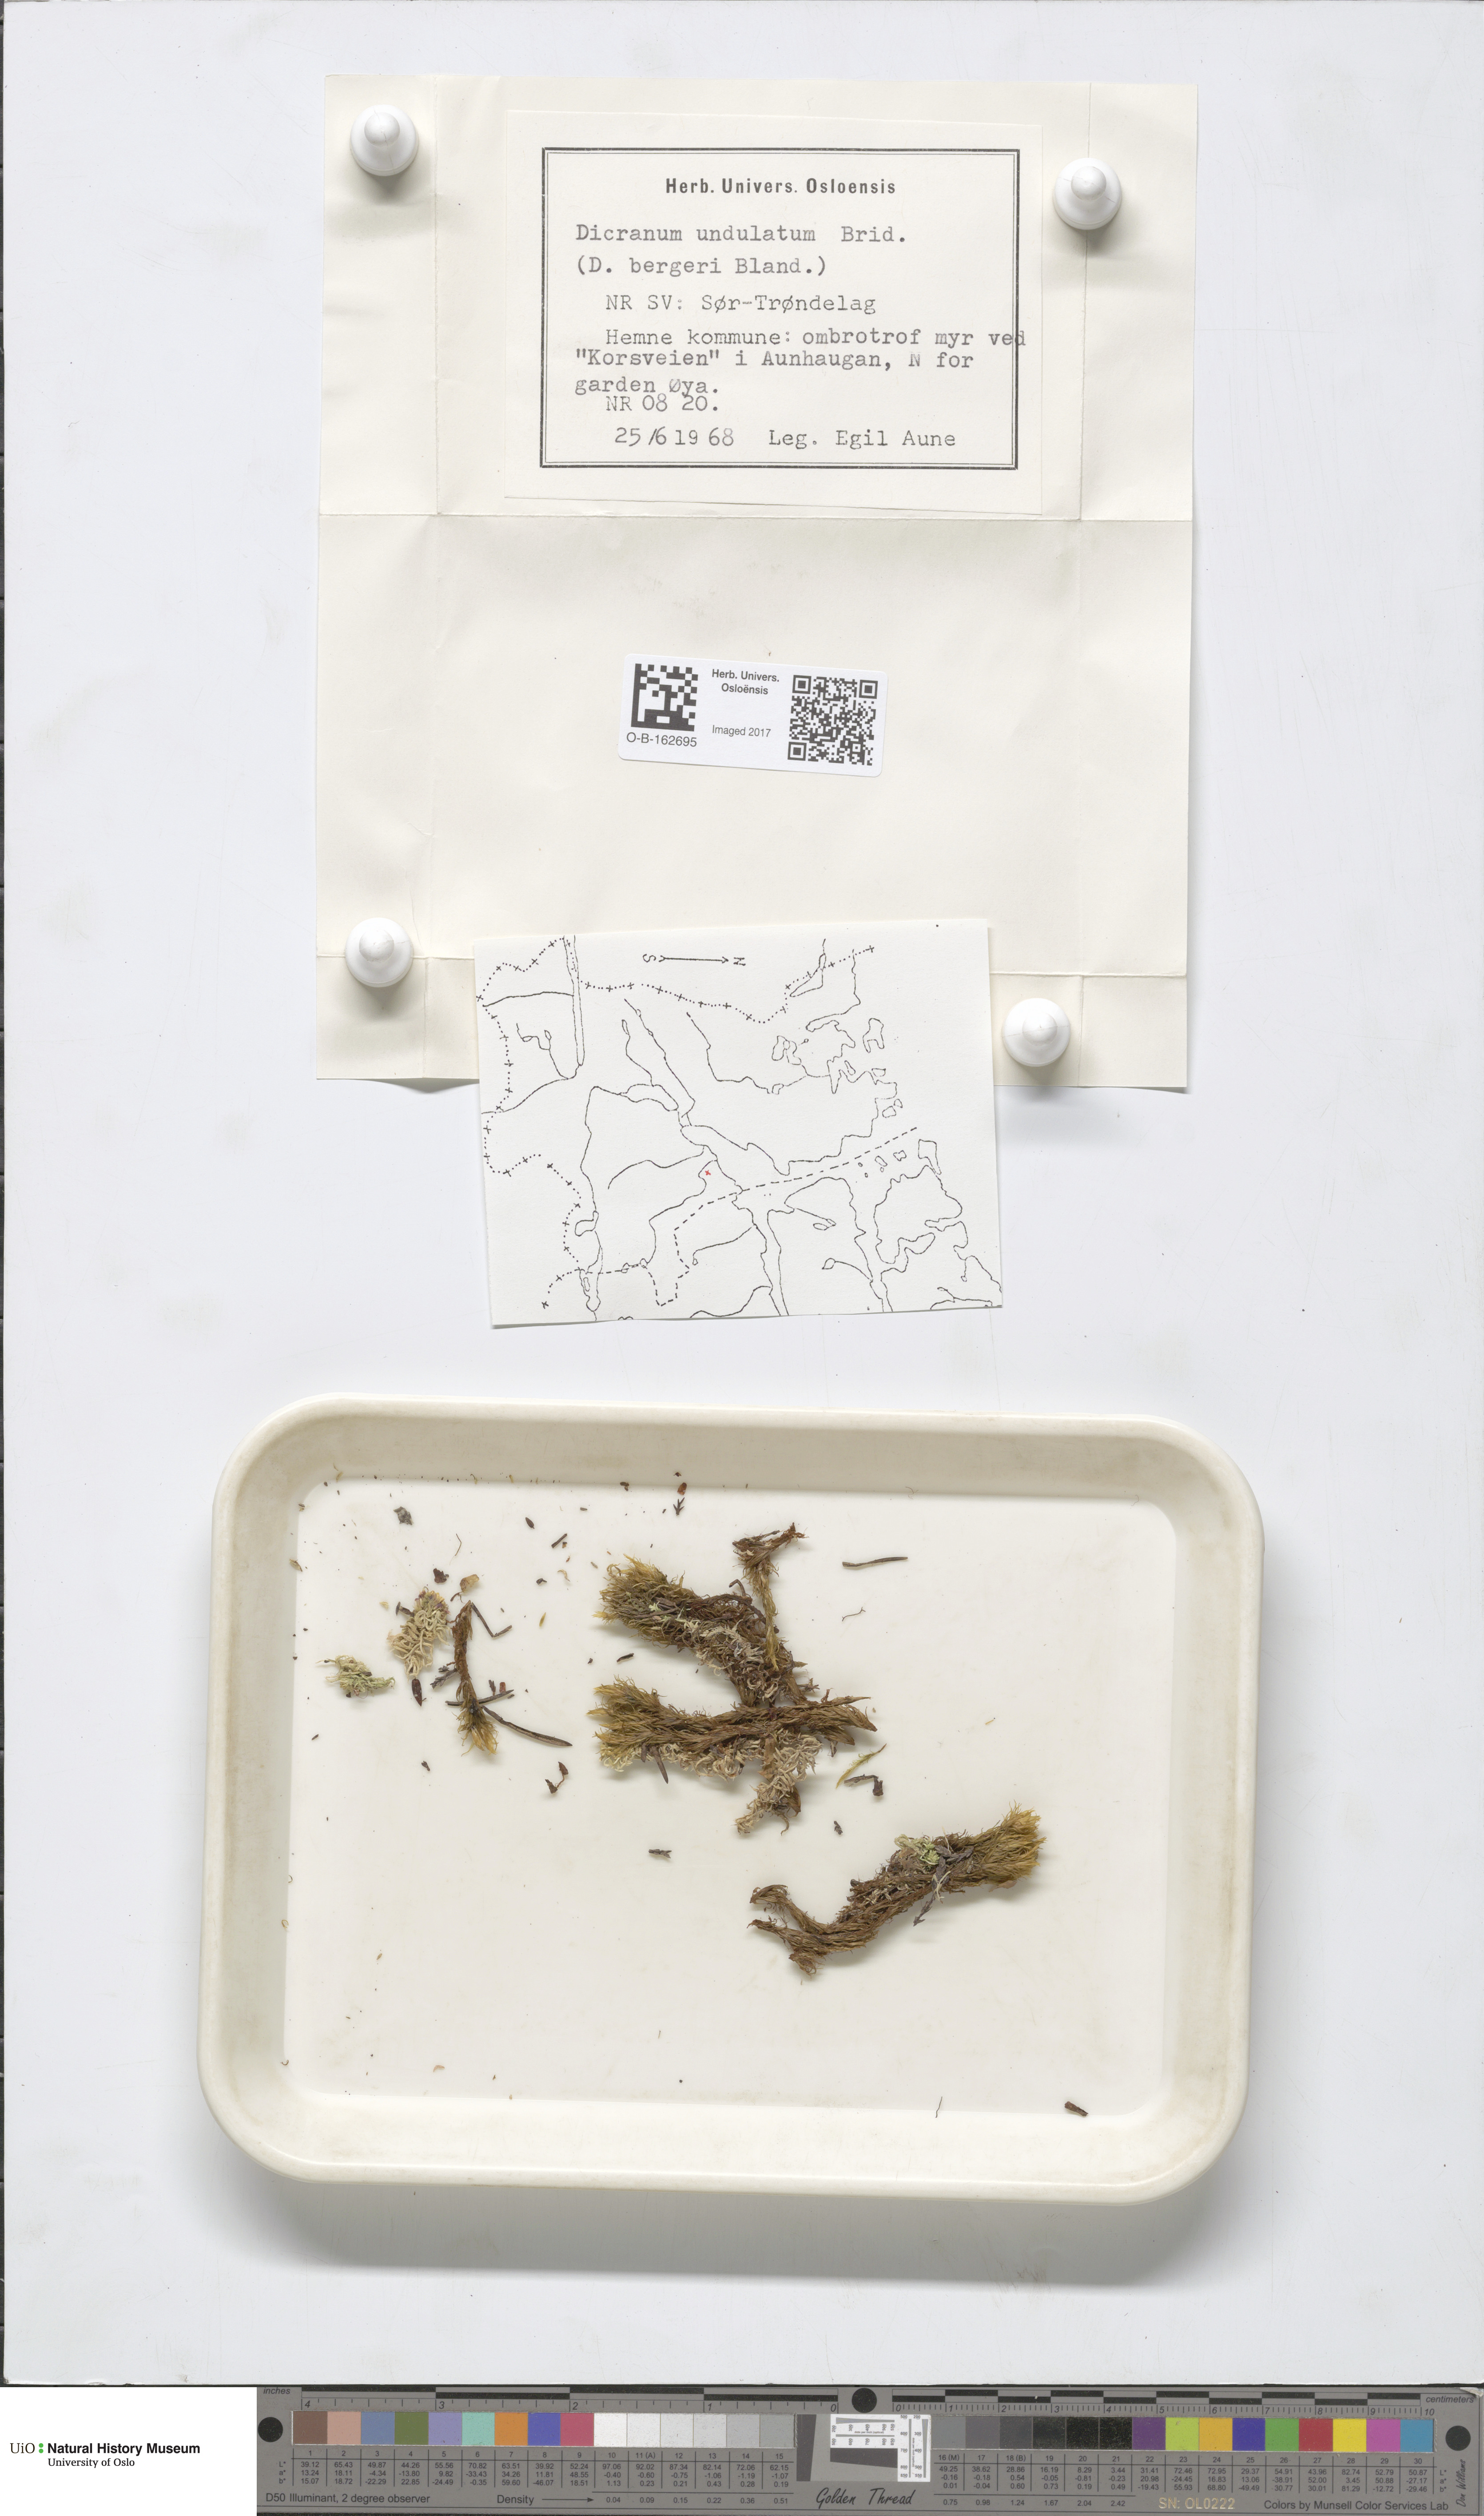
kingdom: Plantae
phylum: Bryophyta
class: Bryopsida
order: Dicranales
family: Dicranaceae
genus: Dicranum
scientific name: Dicranum polysetum
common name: Rugose fork-moss
